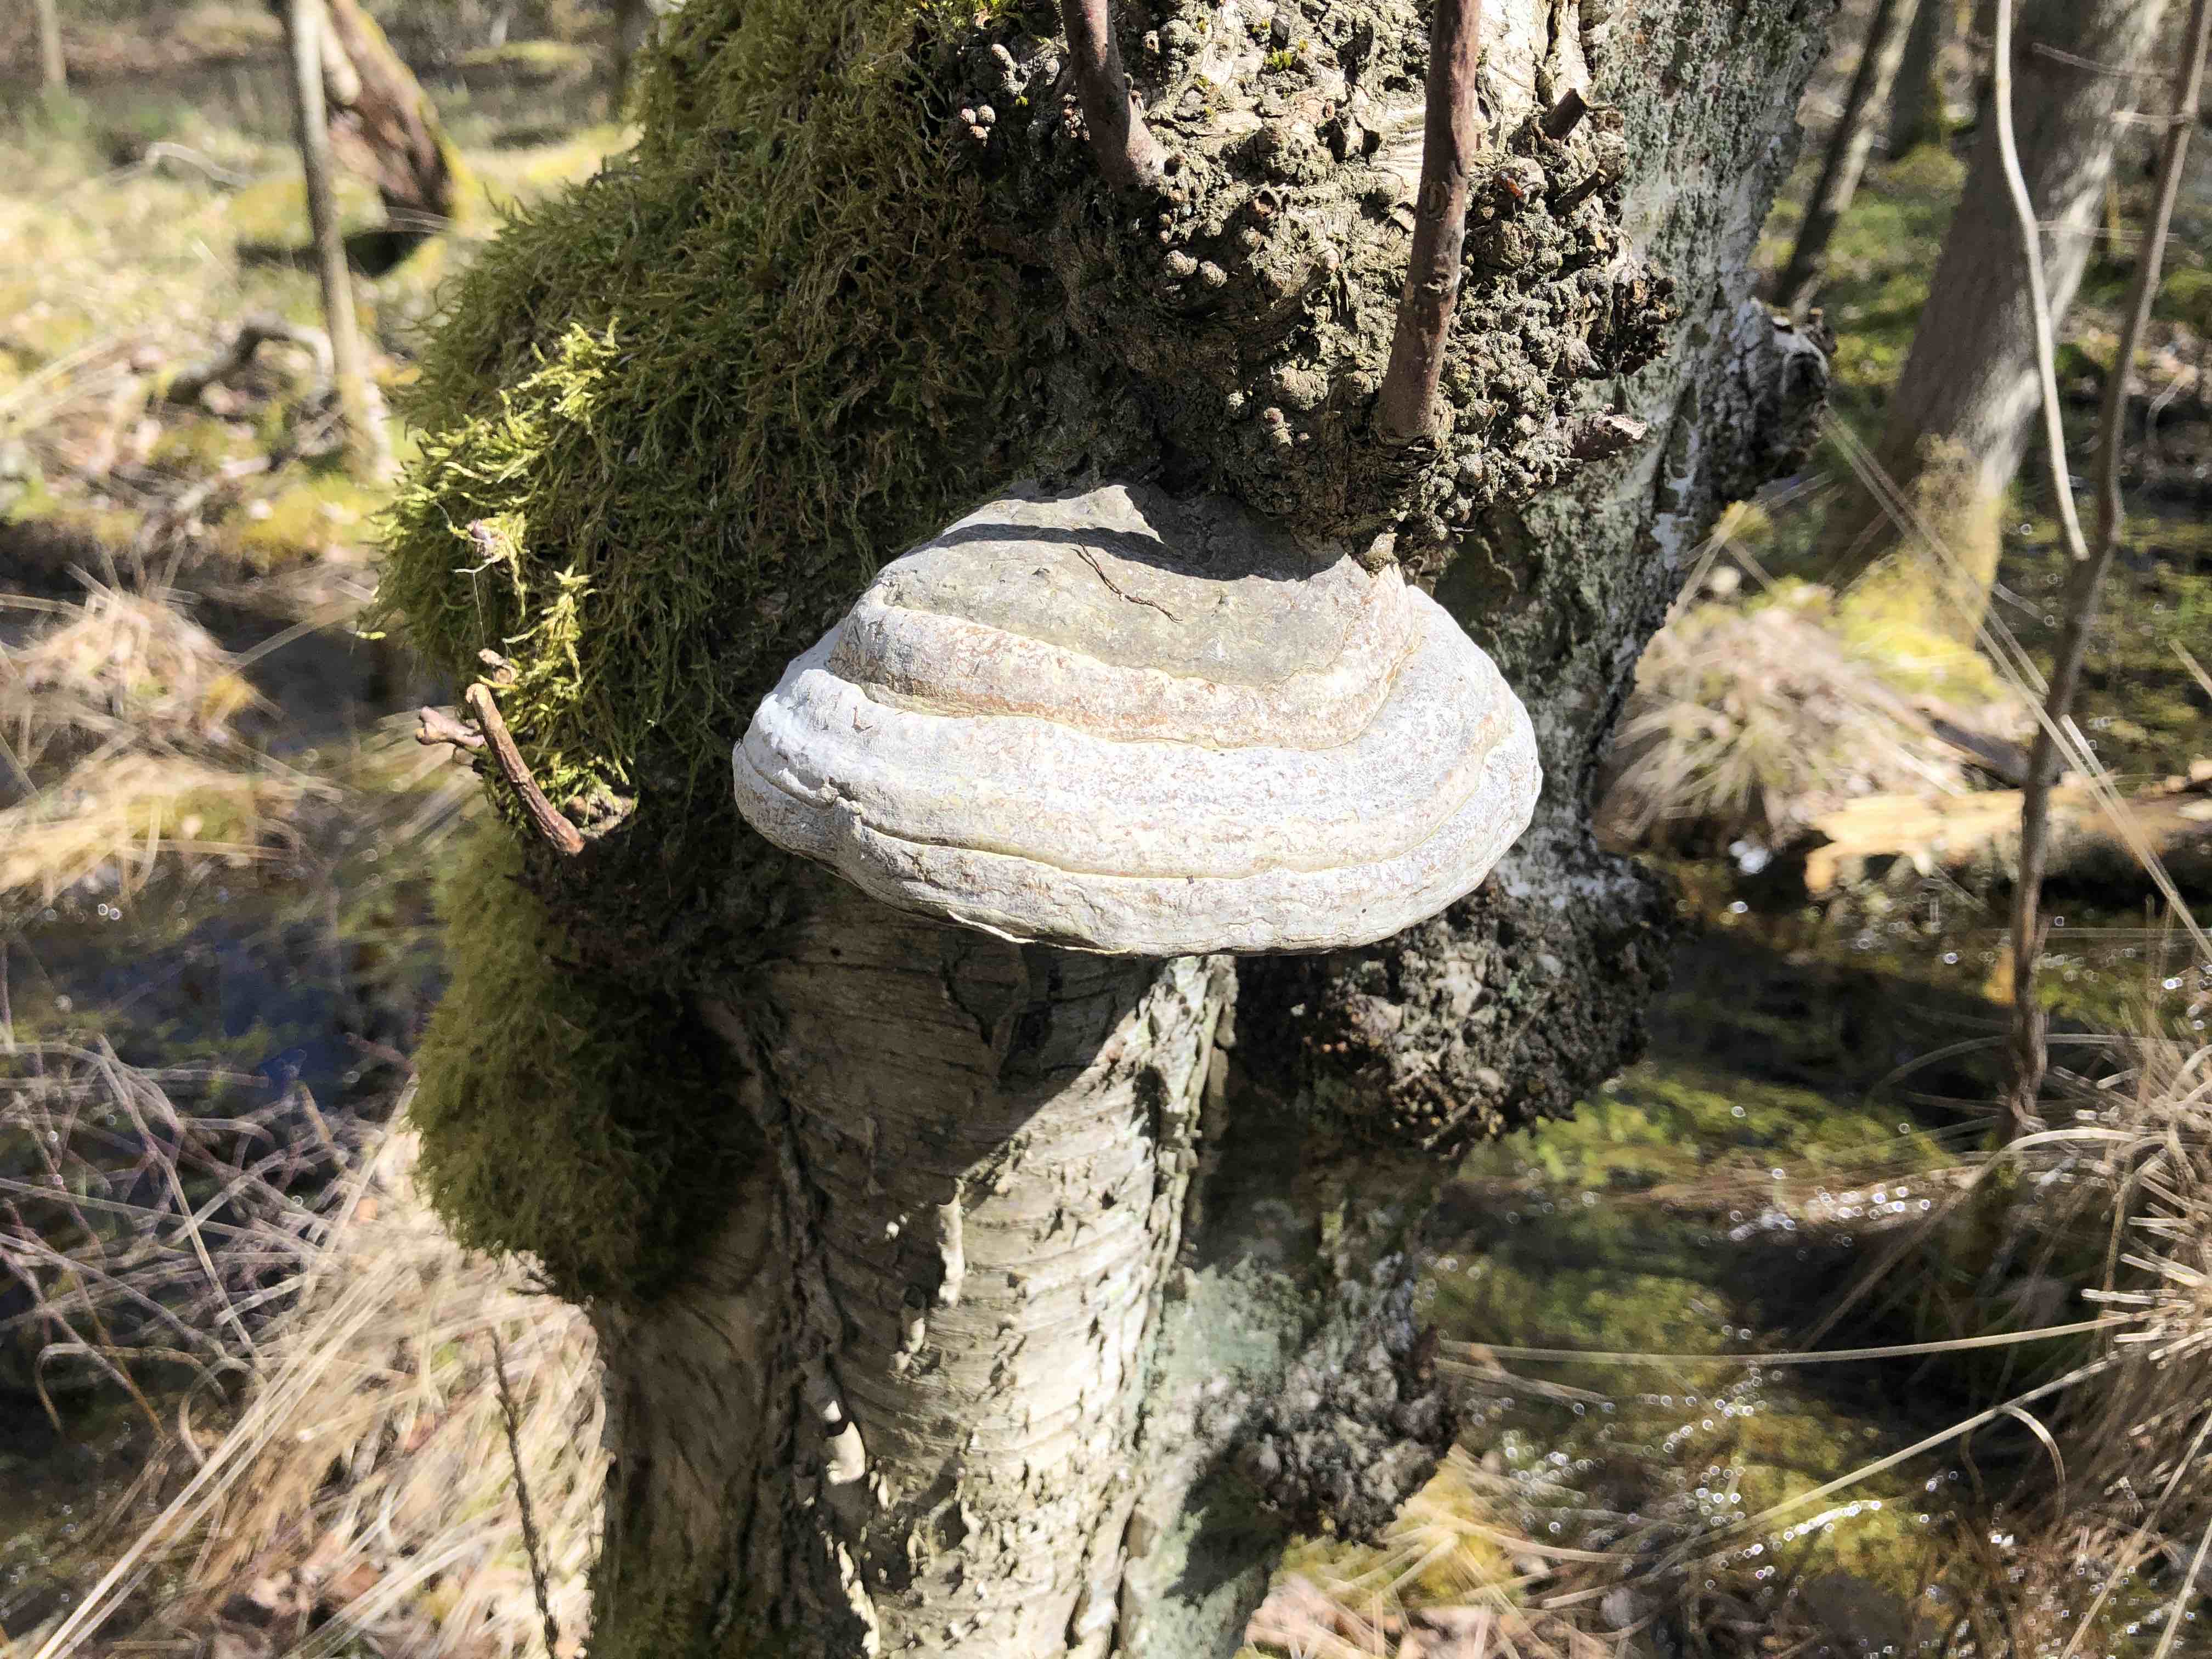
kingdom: Fungi
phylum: Basidiomycota
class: Agaricomycetes
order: Polyporales
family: Polyporaceae
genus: Fomes
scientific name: Fomes fomentarius
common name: tøndersvamp
